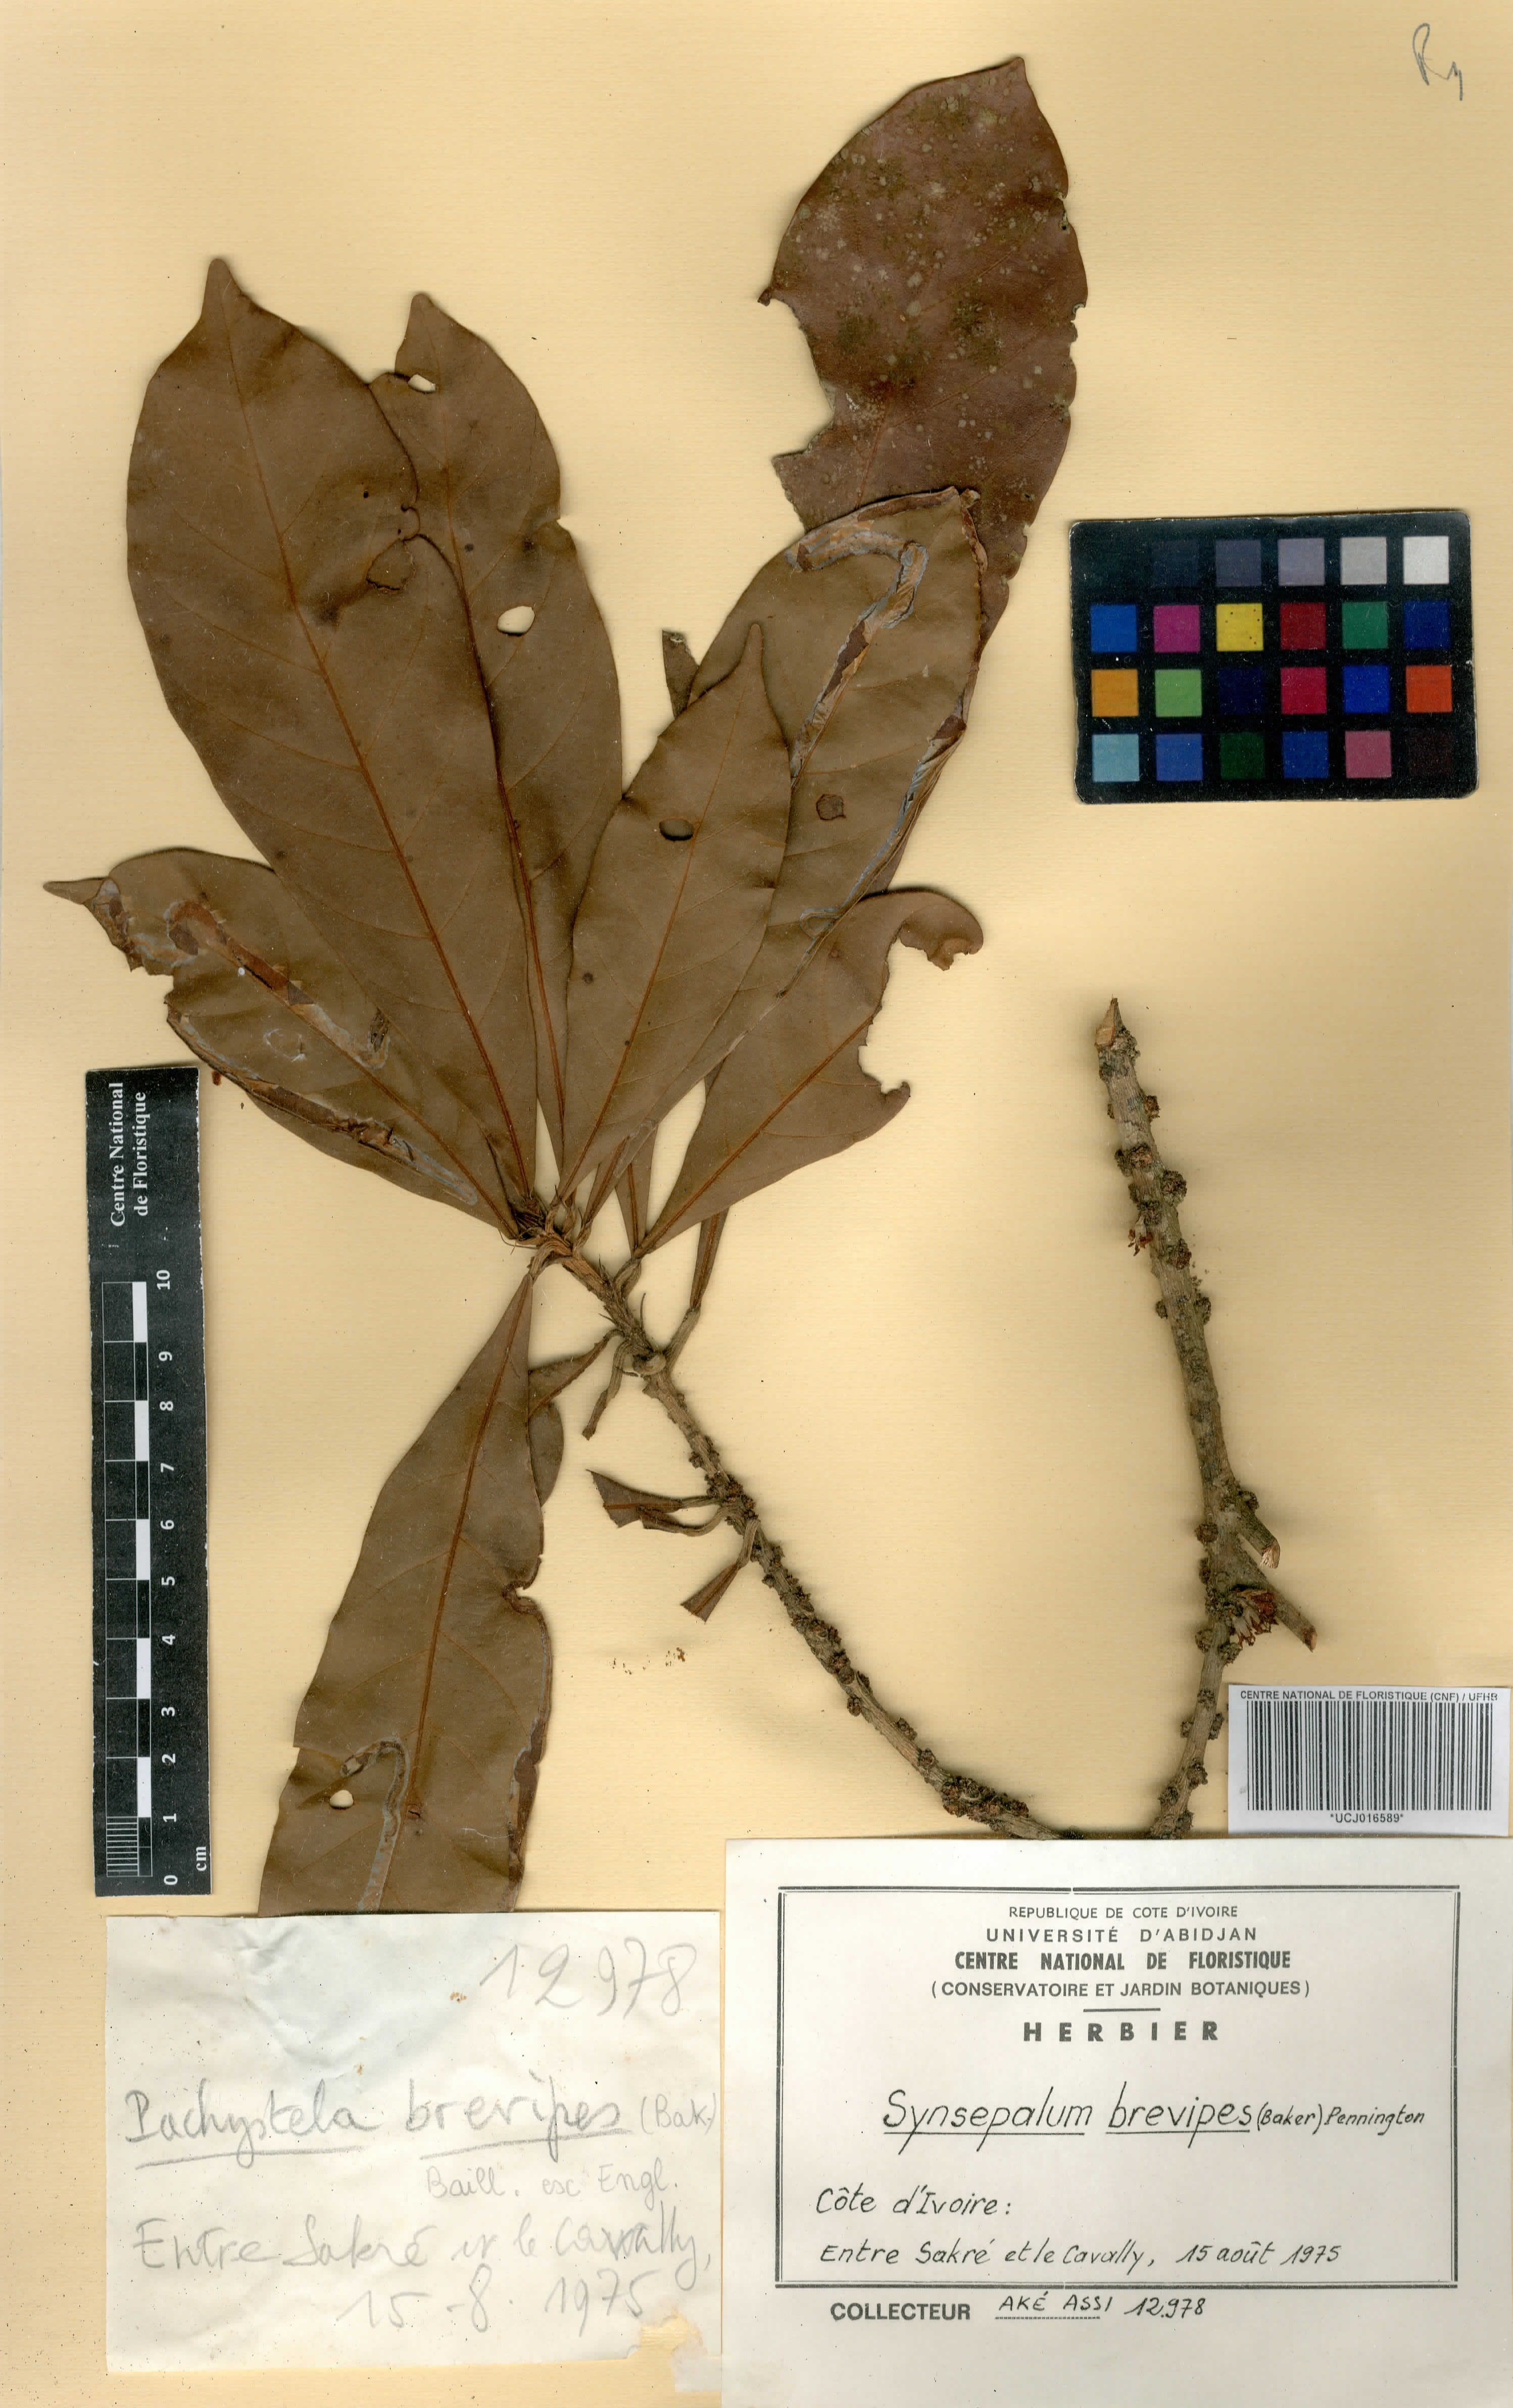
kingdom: Plantae
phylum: Tracheophyta
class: Magnoliopsida
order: Ericales
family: Sapotaceae
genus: Synsepalum
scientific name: Synsepalum brevipes
